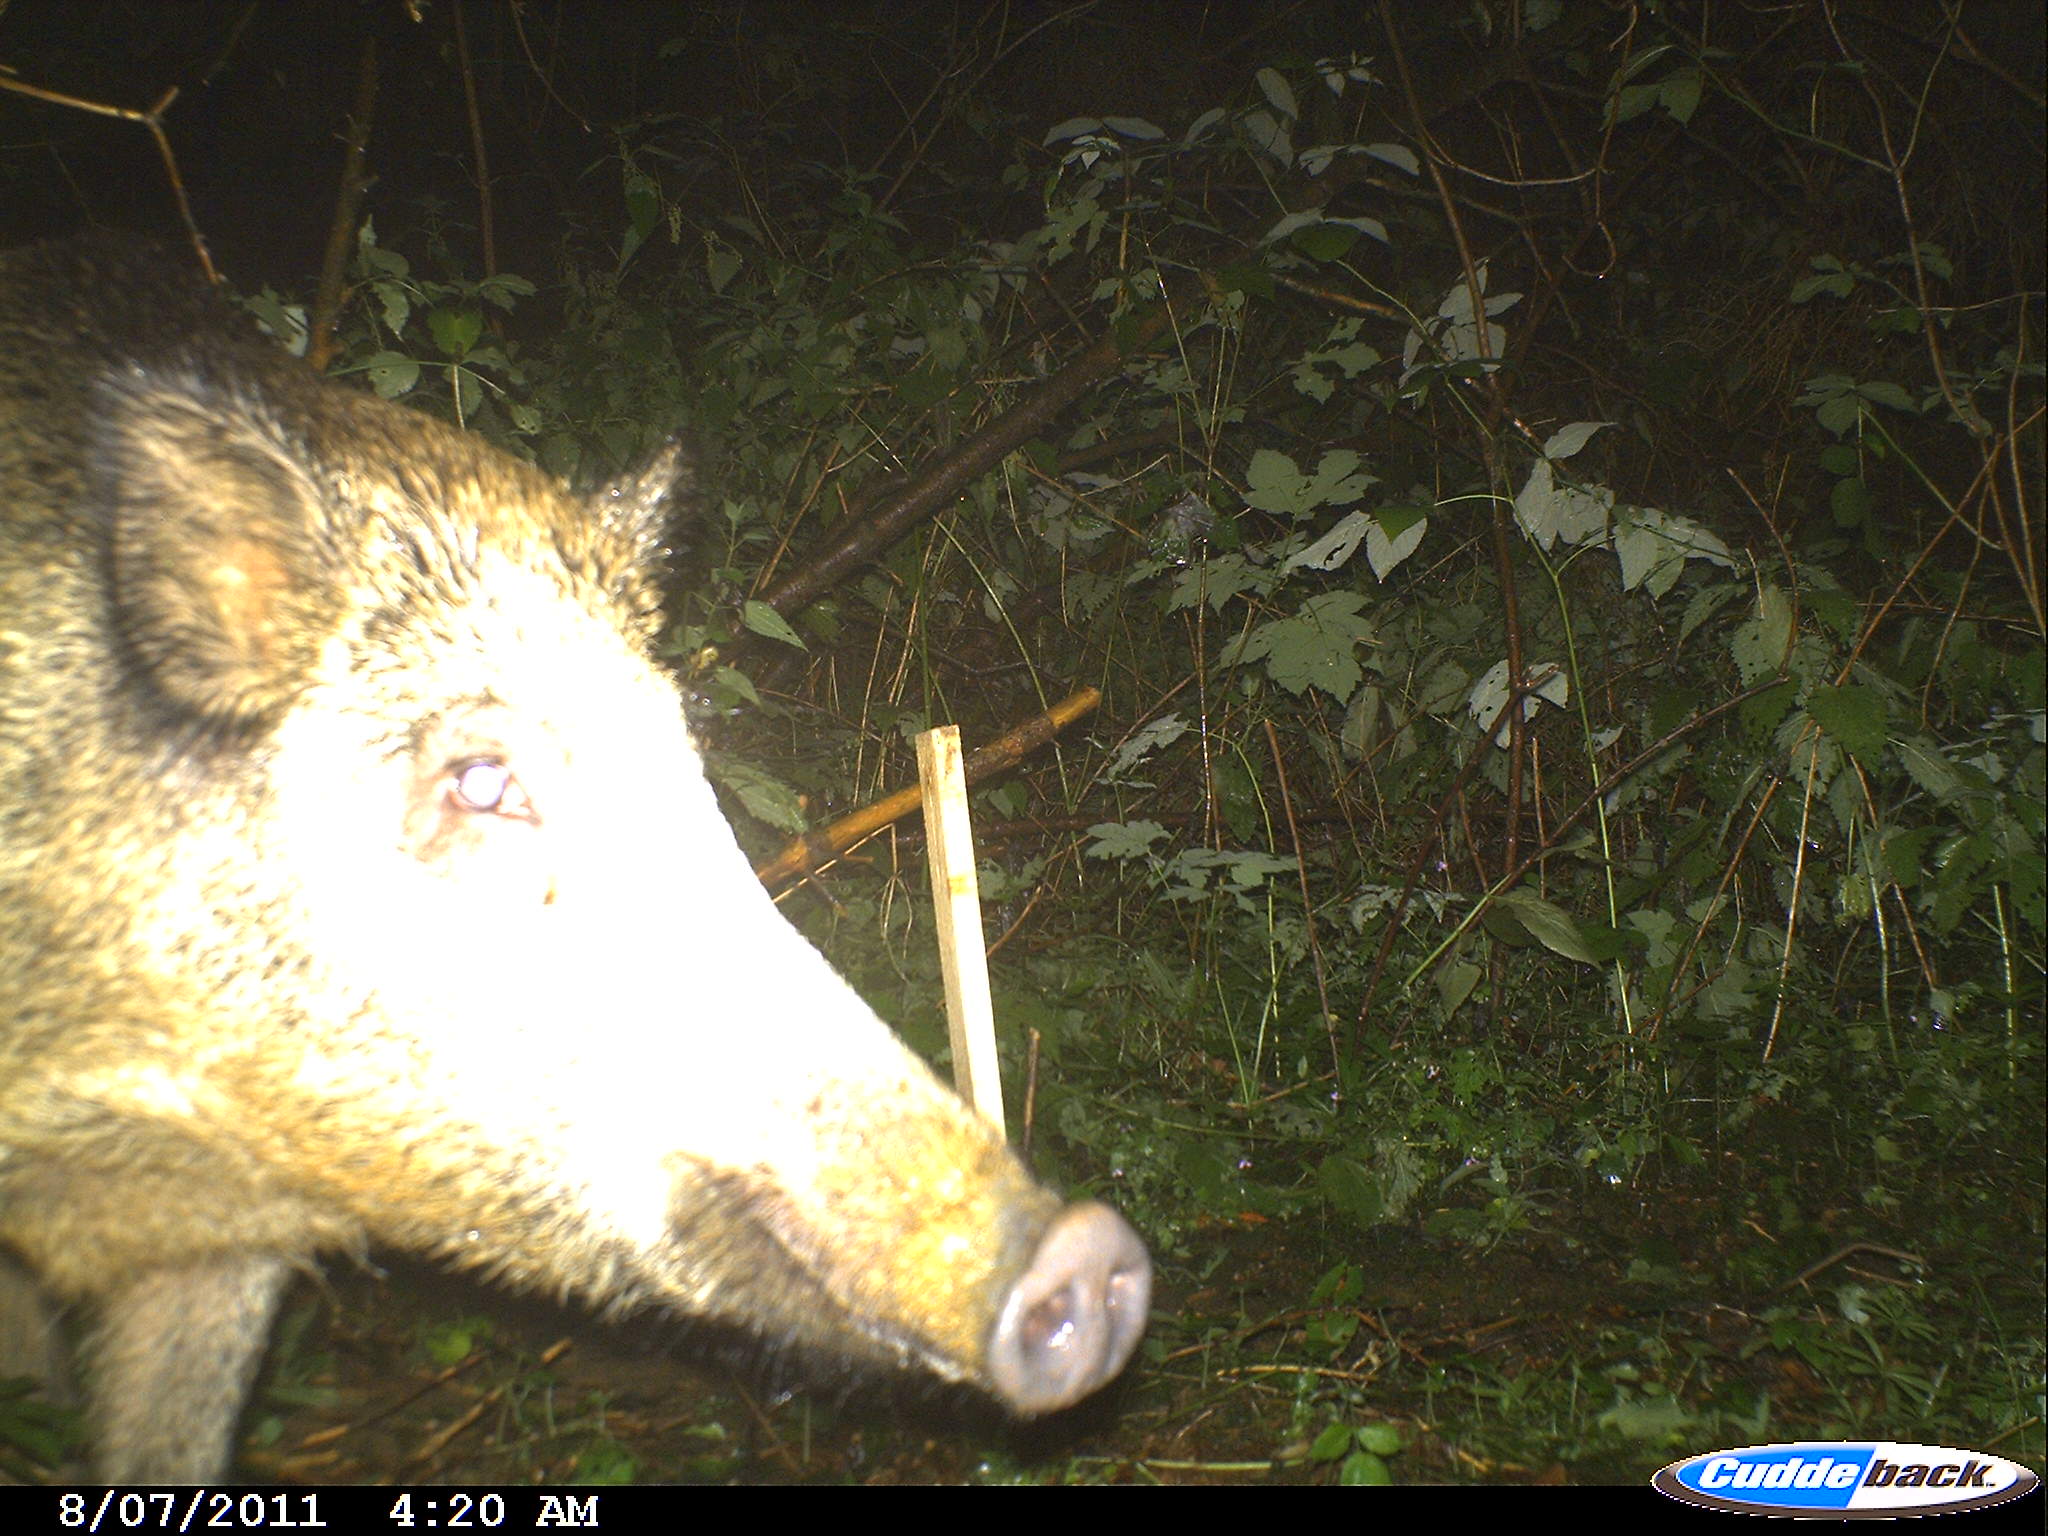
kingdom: Animalia
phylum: Chordata
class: Mammalia
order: Artiodactyla
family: Suidae
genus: Sus
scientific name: Sus scrofa
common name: Wild boar
